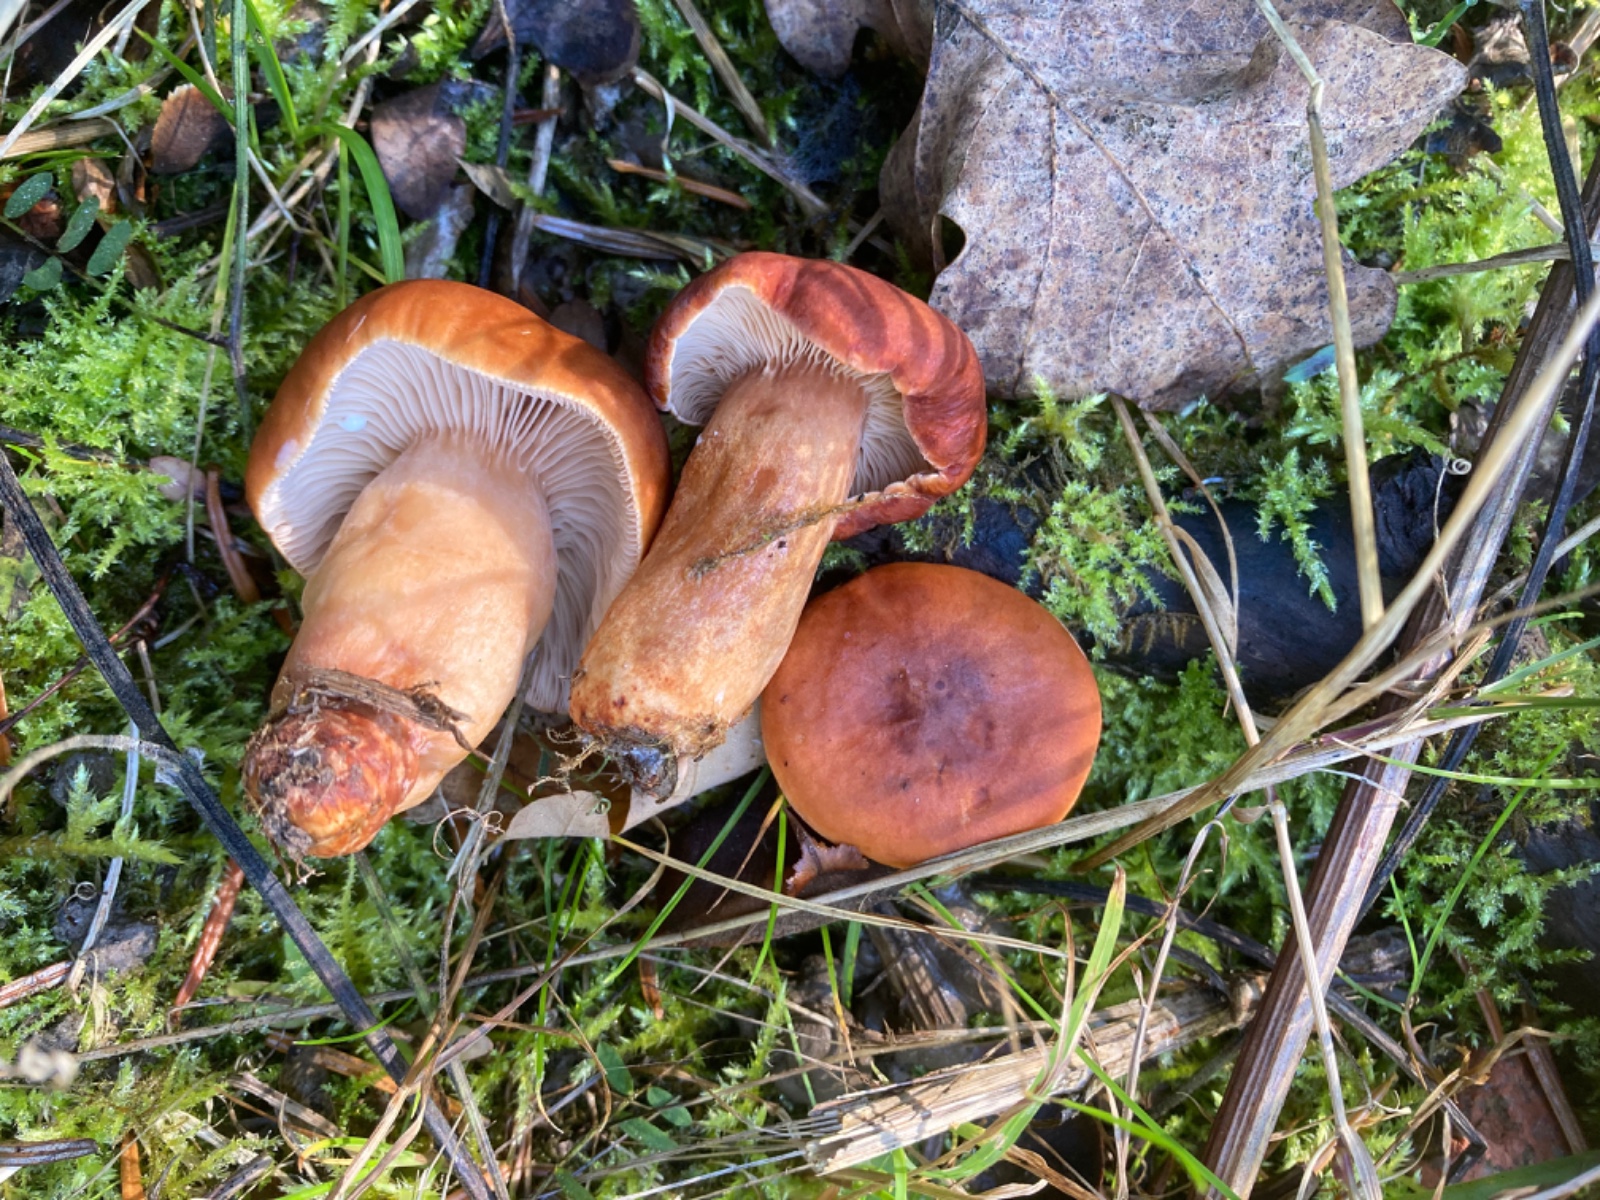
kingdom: Fungi
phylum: Basidiomycota
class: Agaricomycetes
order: Russulales
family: Russulaceae
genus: Lactarius
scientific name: Lactarius aurantiacus
